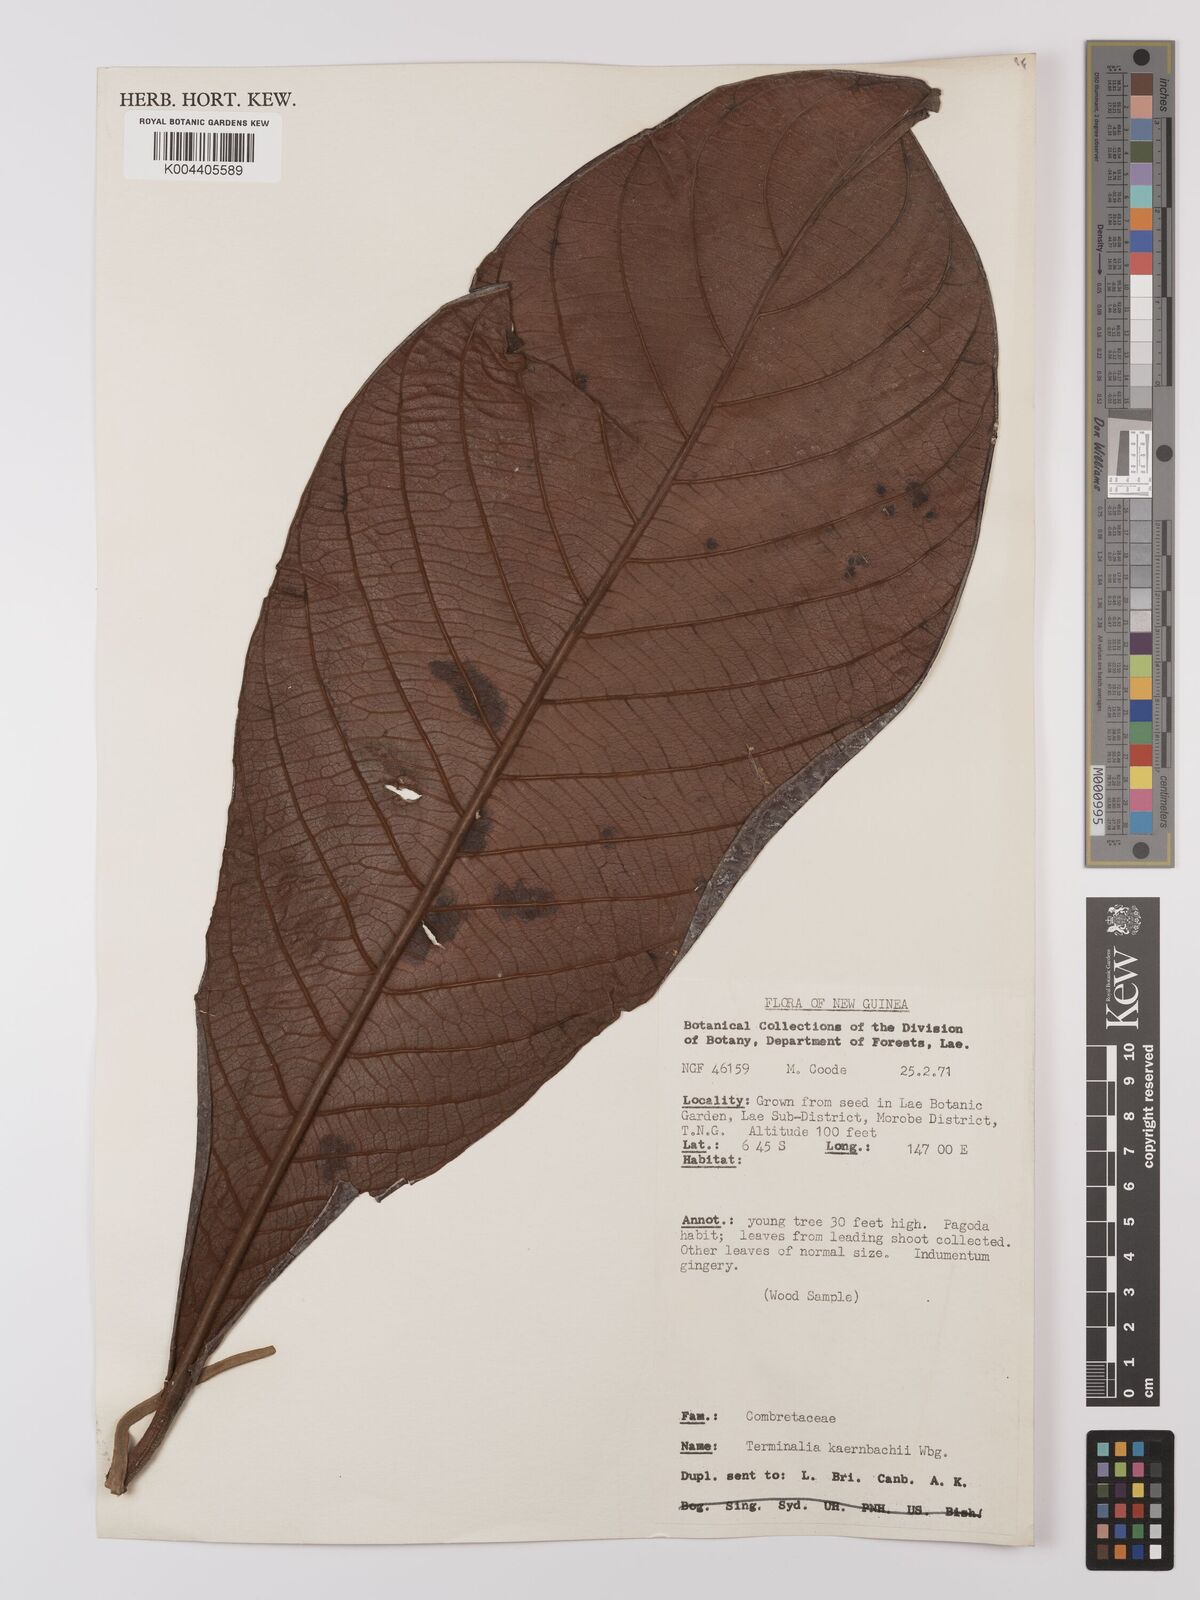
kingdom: Plantae
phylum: Tracheophyta
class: Magnoliopsida
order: Myrtales
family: Combretaceae
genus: Terminalia
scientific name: Terminalia kaernbachii
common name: Okari-nut
